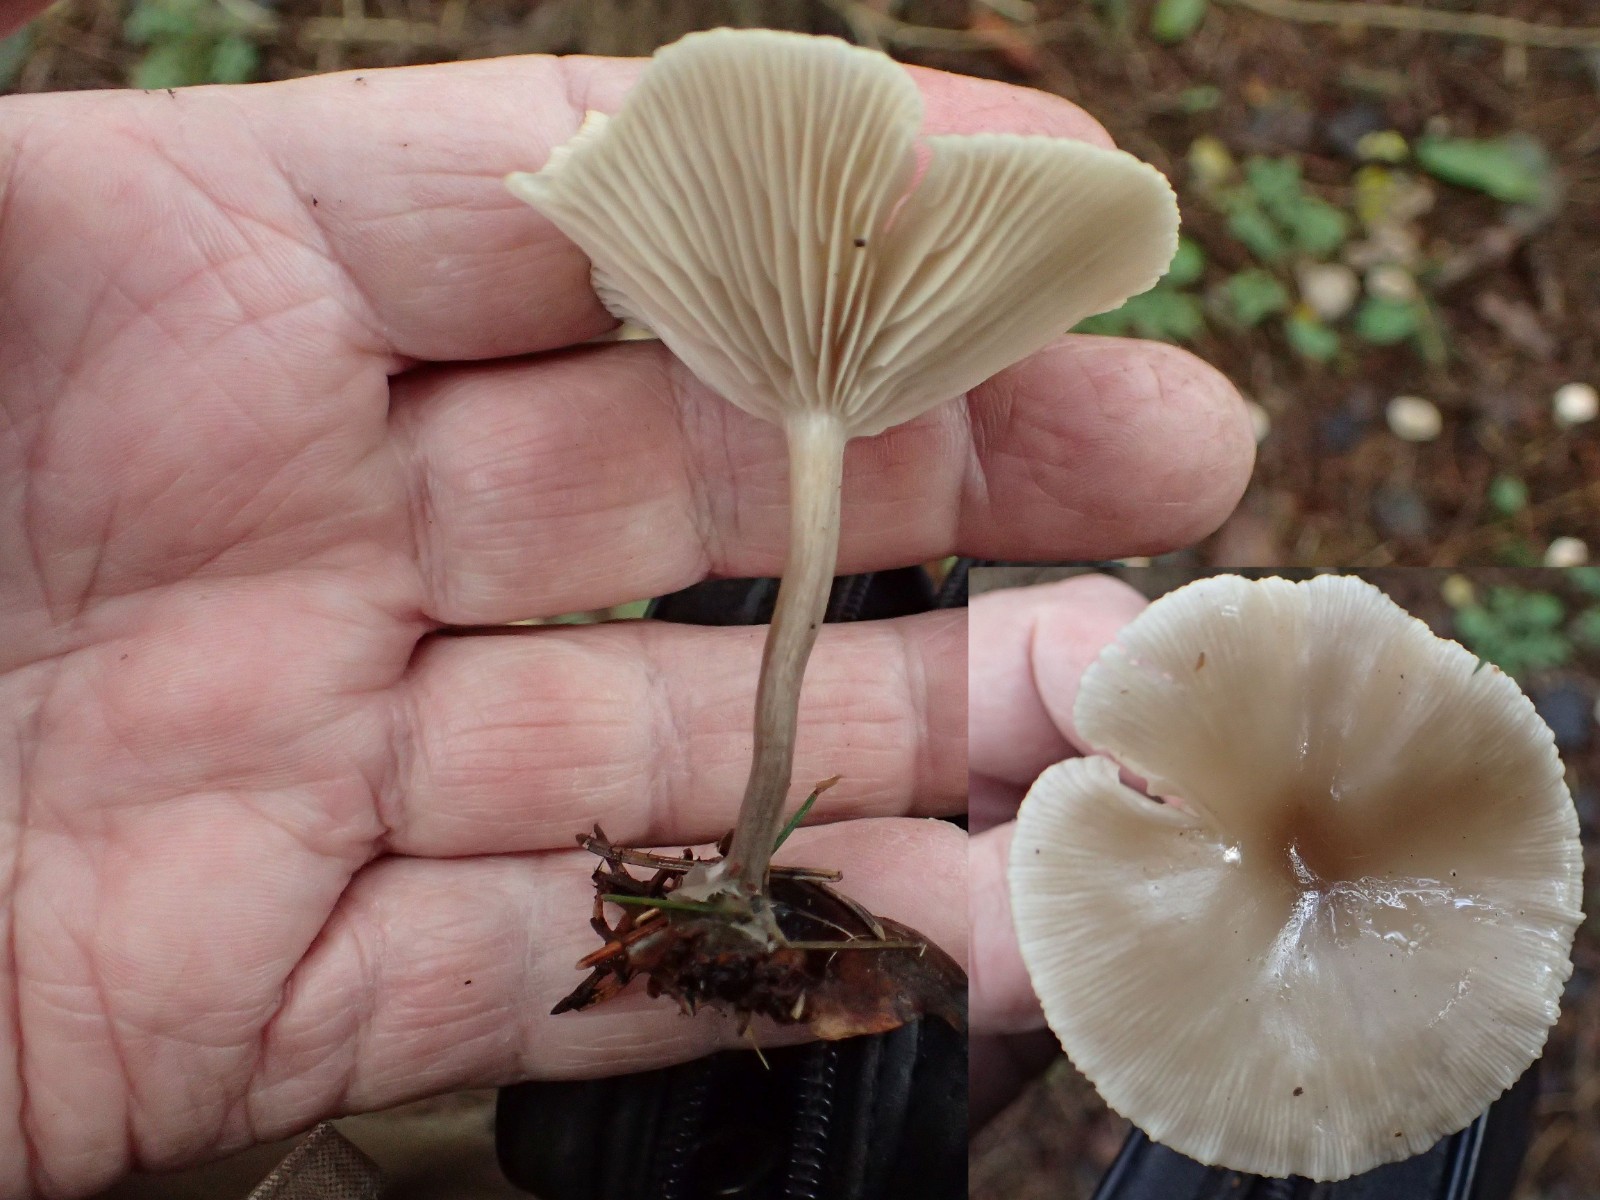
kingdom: Fungi
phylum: Basidiomycota
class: Agaricomycetes
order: Agaricales
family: Tricholomataceae
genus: Clitocybe
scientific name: Clitocybe metachroa
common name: grå tragthat
